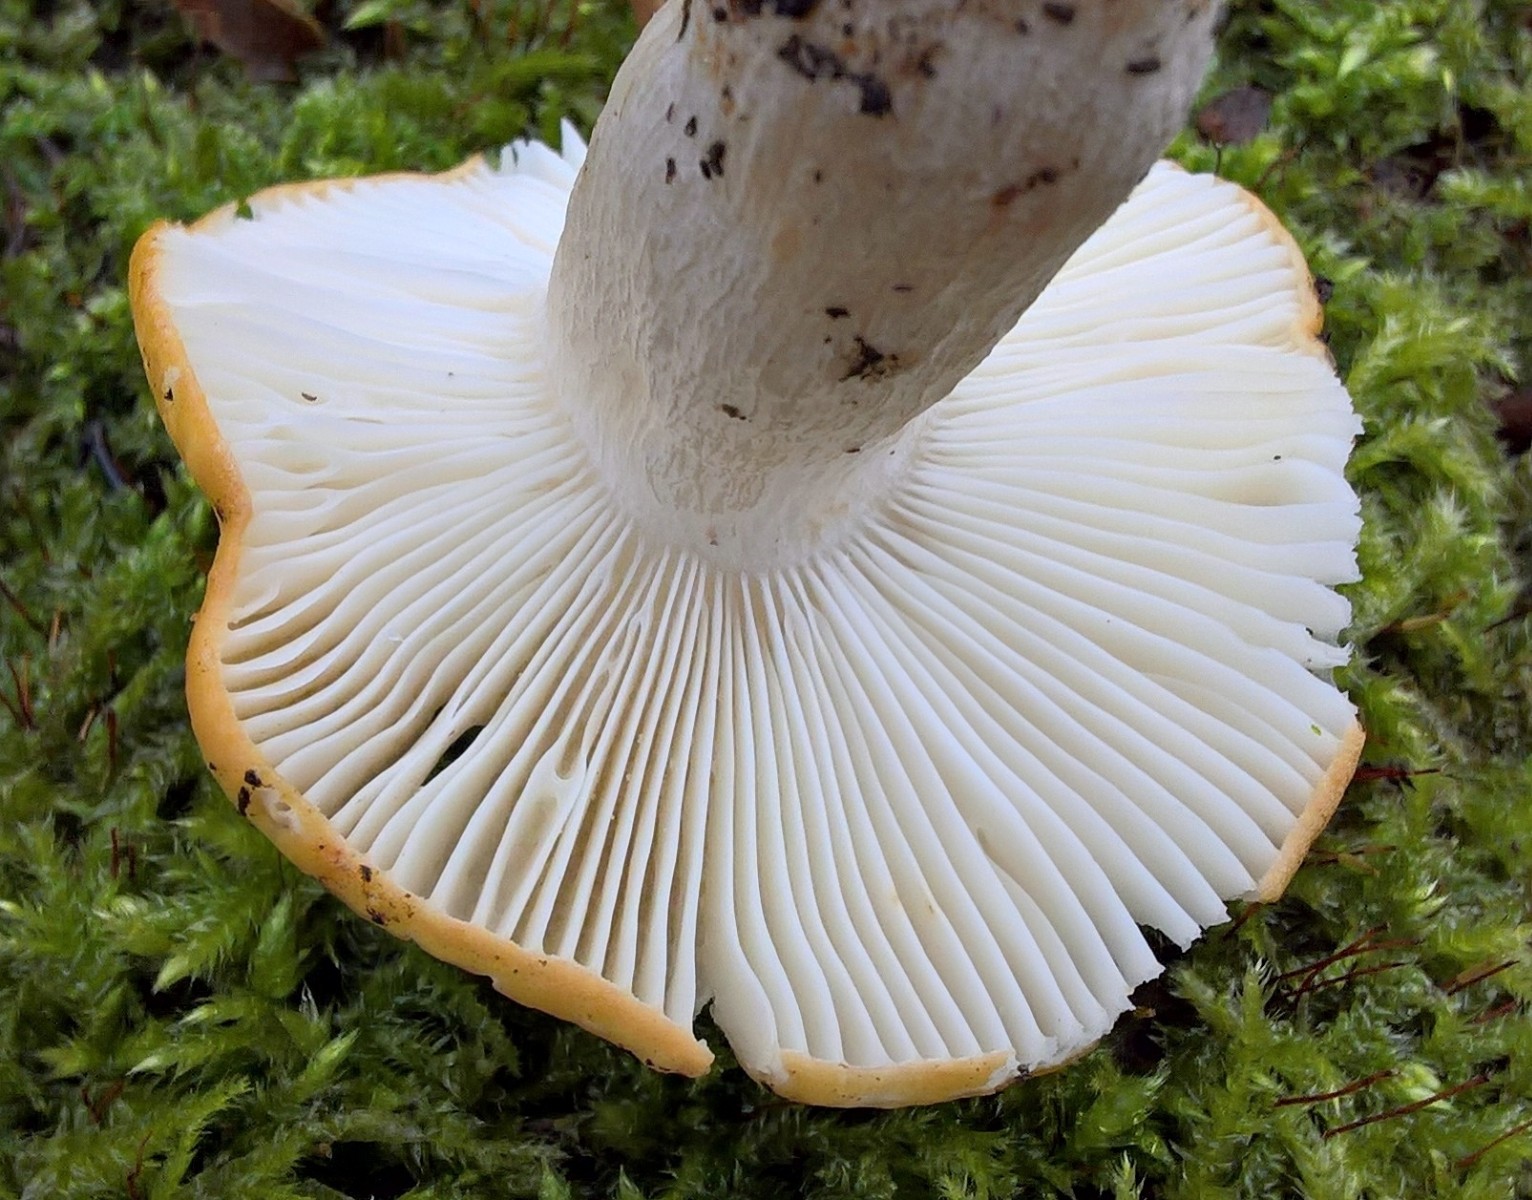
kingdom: Fungi
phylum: Basidiomycota
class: Agaricomycetes
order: Russulales
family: Russulaceae
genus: Russula
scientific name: Russula ochroleuca
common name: okkergul skørhat
